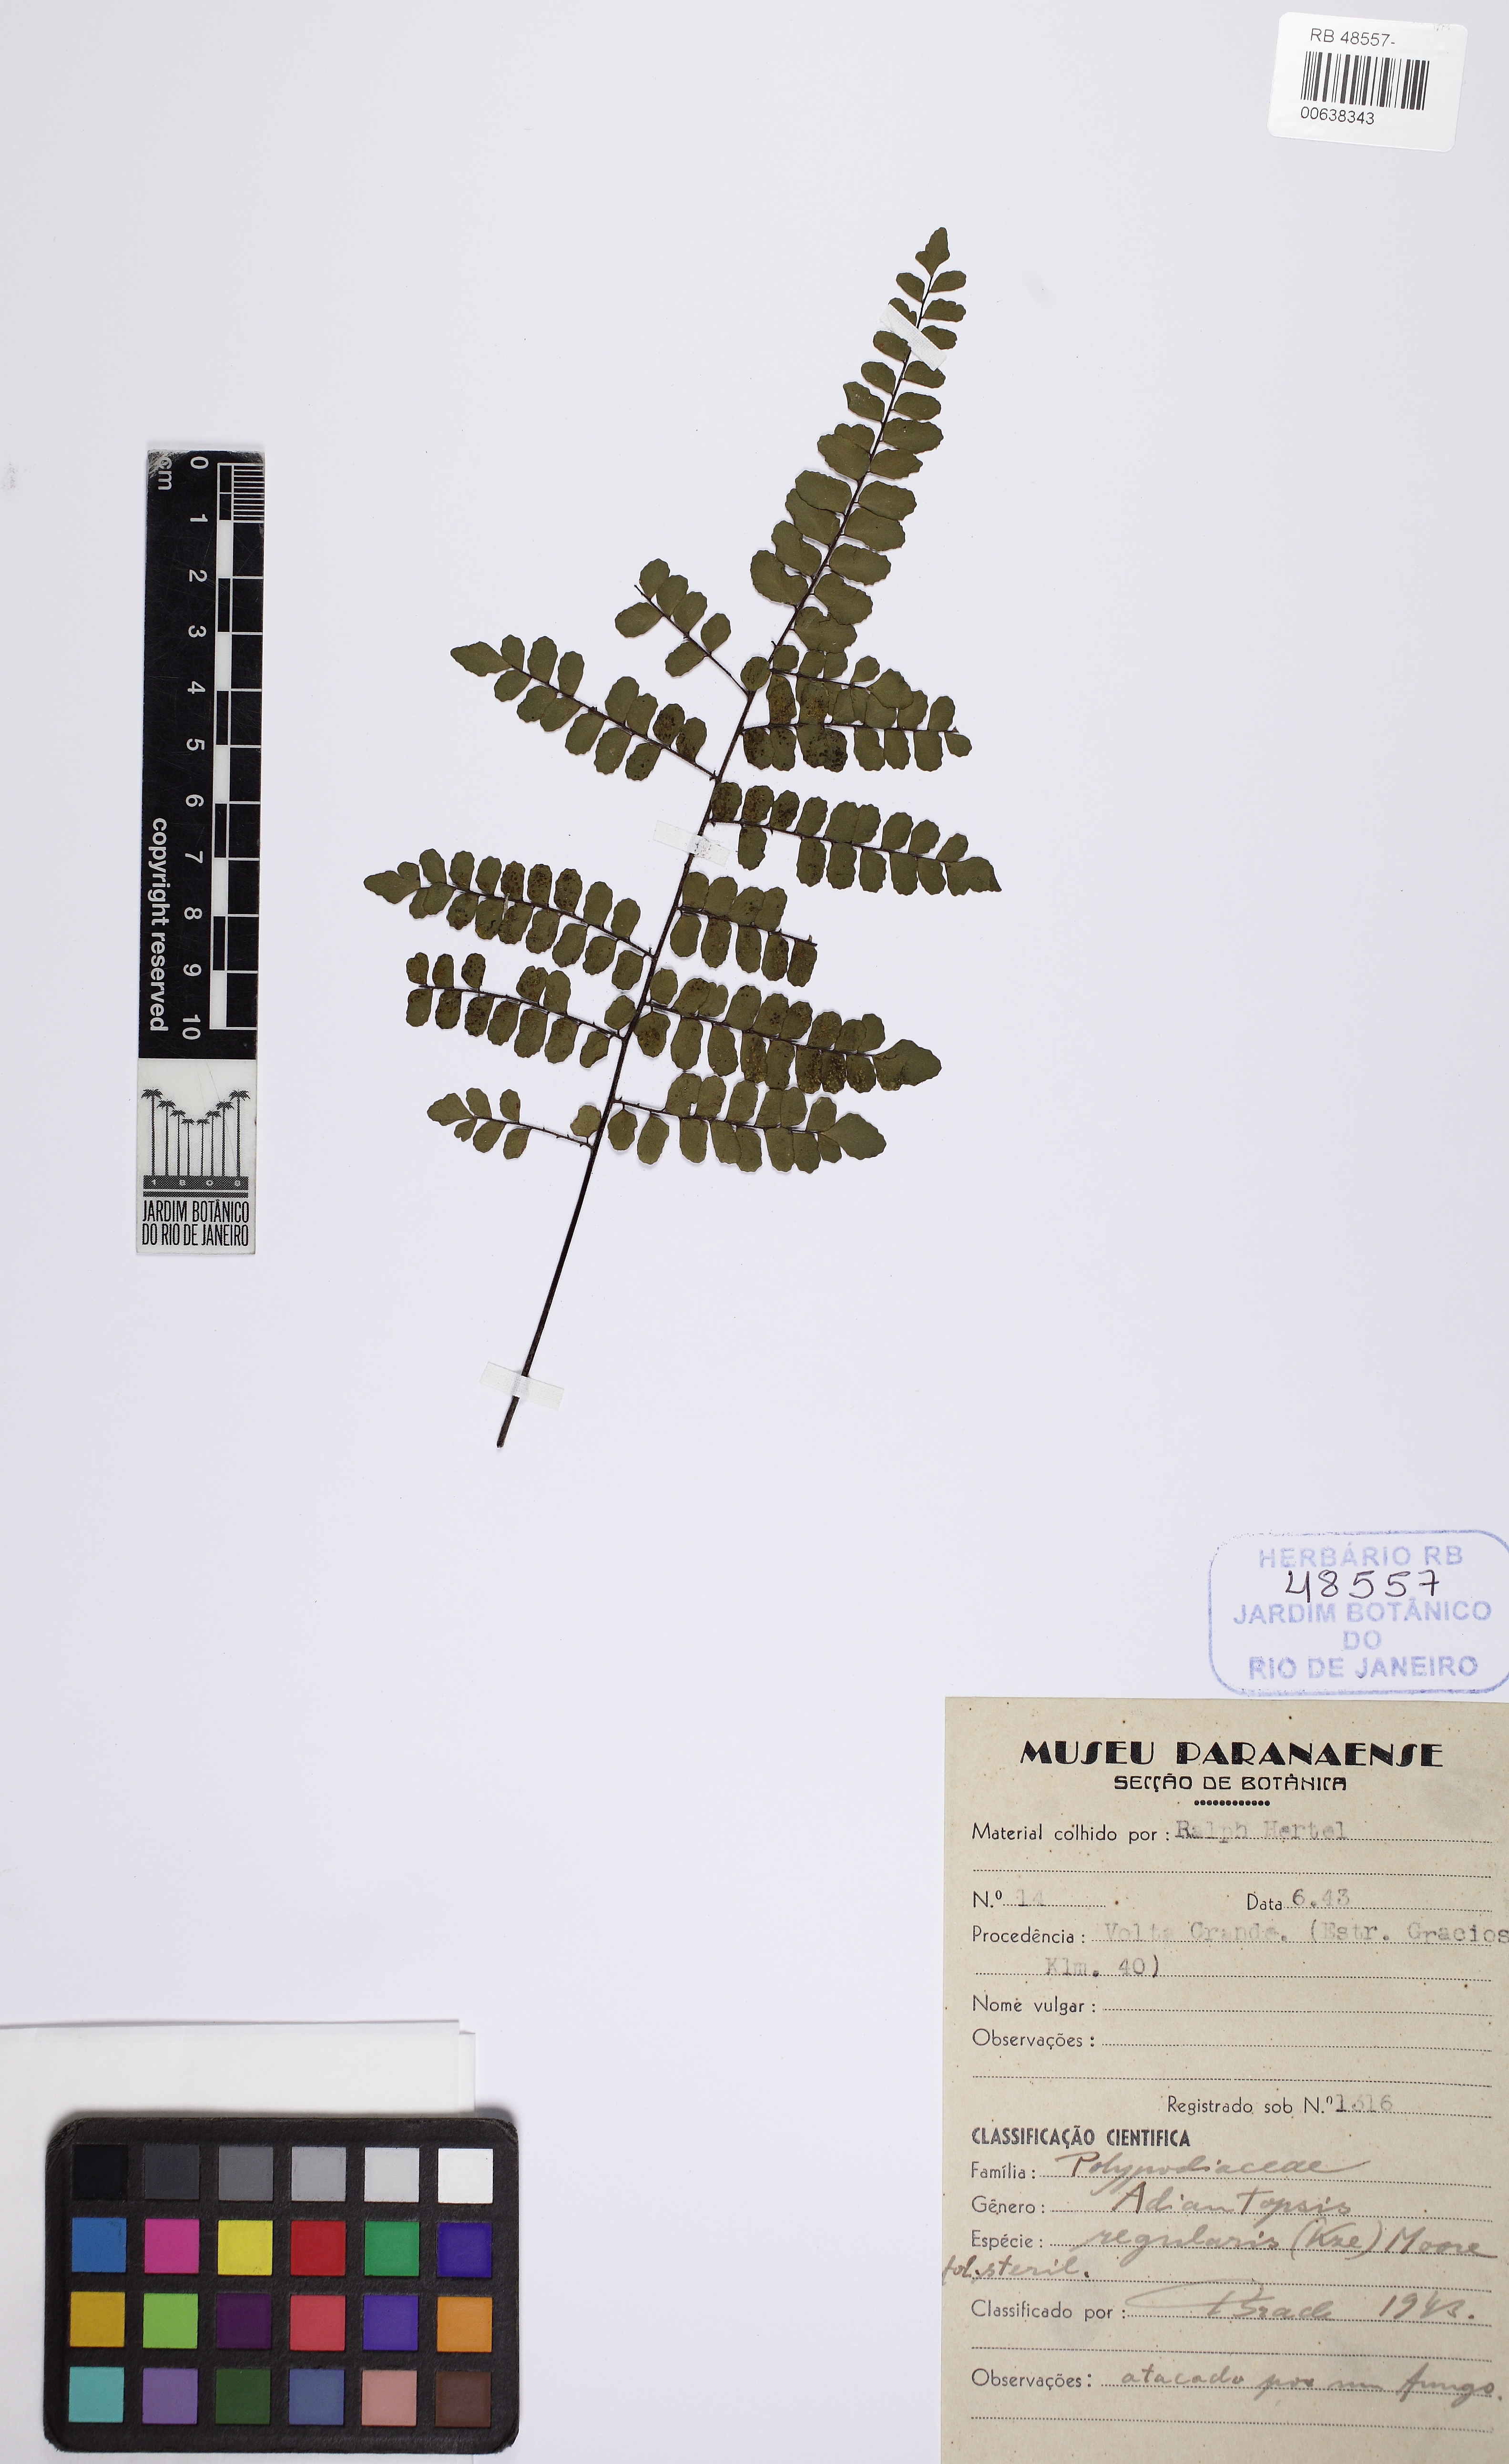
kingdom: Plantae
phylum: Tracheophyta
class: Polypodiopsida
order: Polypodiales
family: Pteridaceae
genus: Adiantopsis
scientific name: Adiantopsis regularis
